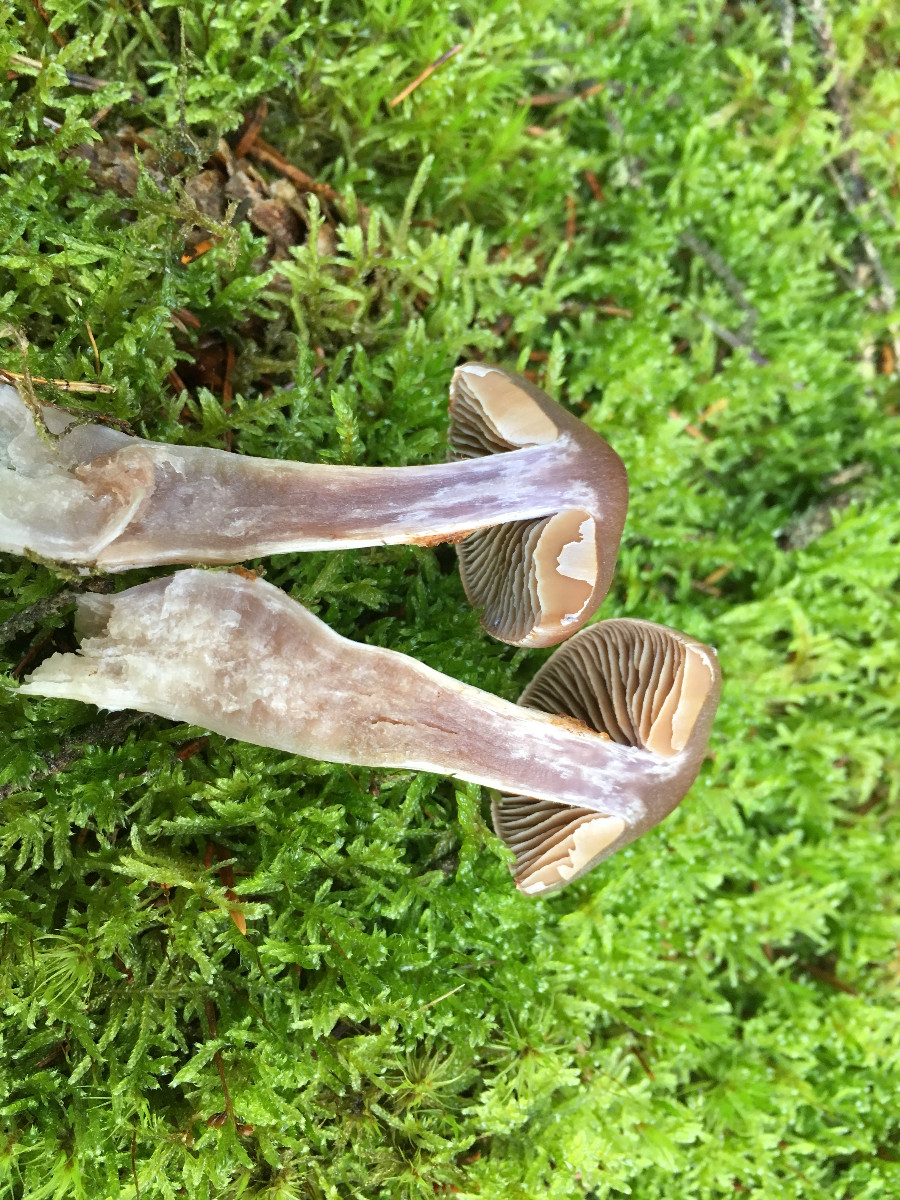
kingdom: Fungi
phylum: Basidiomycota
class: Agaricomycetes
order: Agaricales
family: Cortinariaceae
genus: Cortinarius
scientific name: Cortinarius
